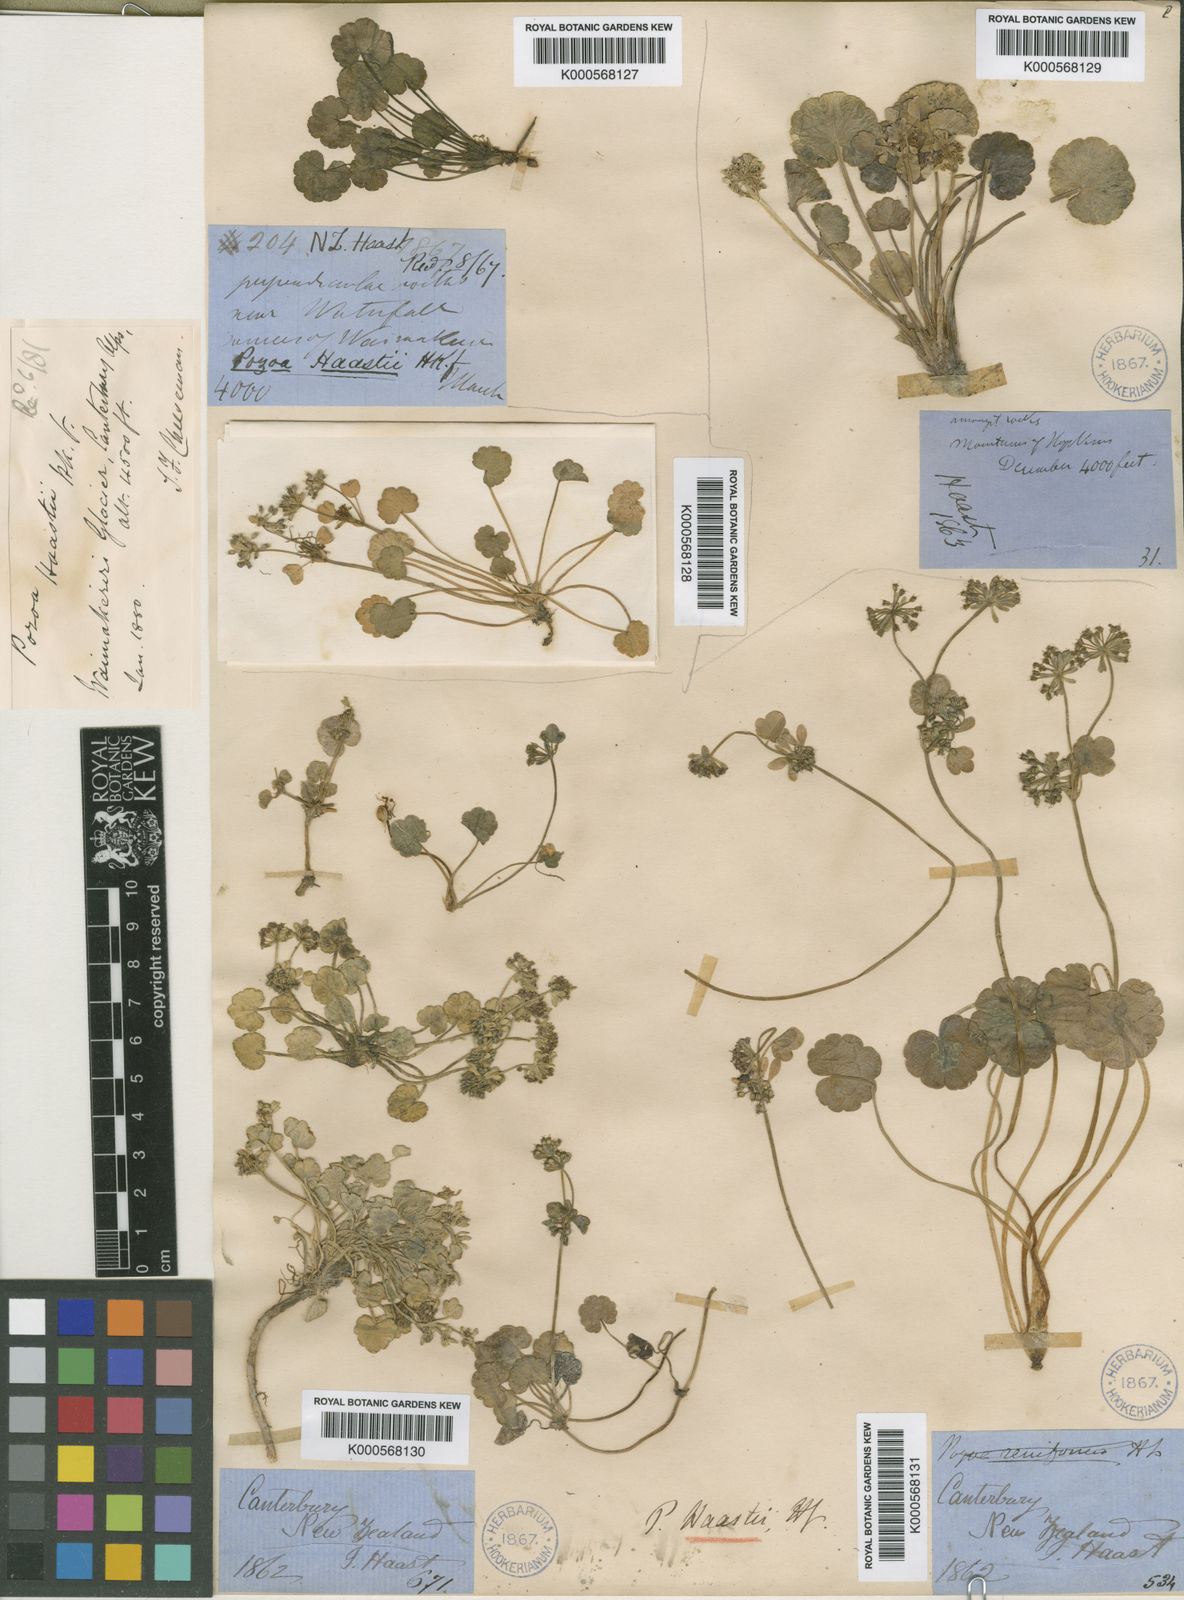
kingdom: Plantae
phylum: Tracheophyta
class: Magnoliopsida
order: Apiales
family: Apiaceae
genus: Azorella
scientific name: Azorella haastii
